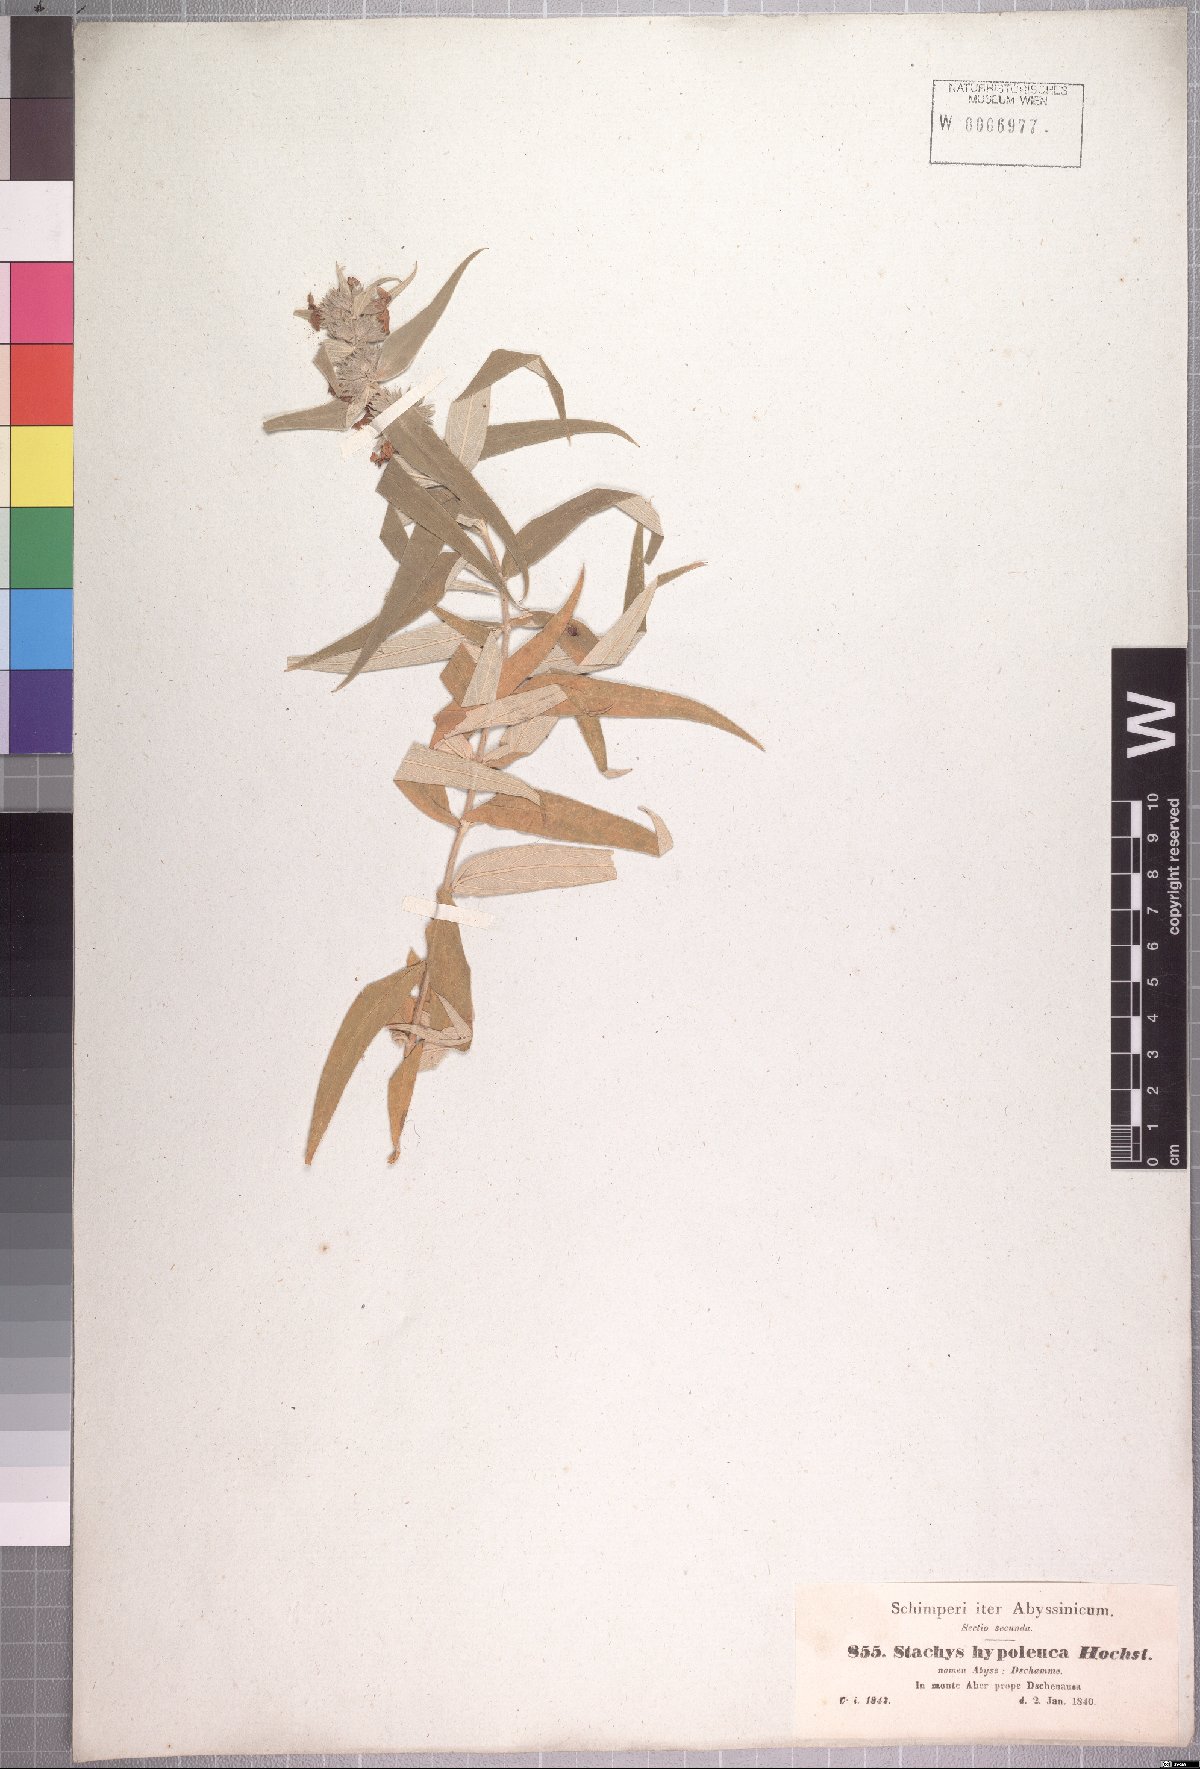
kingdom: Plantae
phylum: Tracheophyta
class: Magnoliopsida
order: Lamiales
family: Lamiaceae
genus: Stachys
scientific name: Stachys hypoleuca
